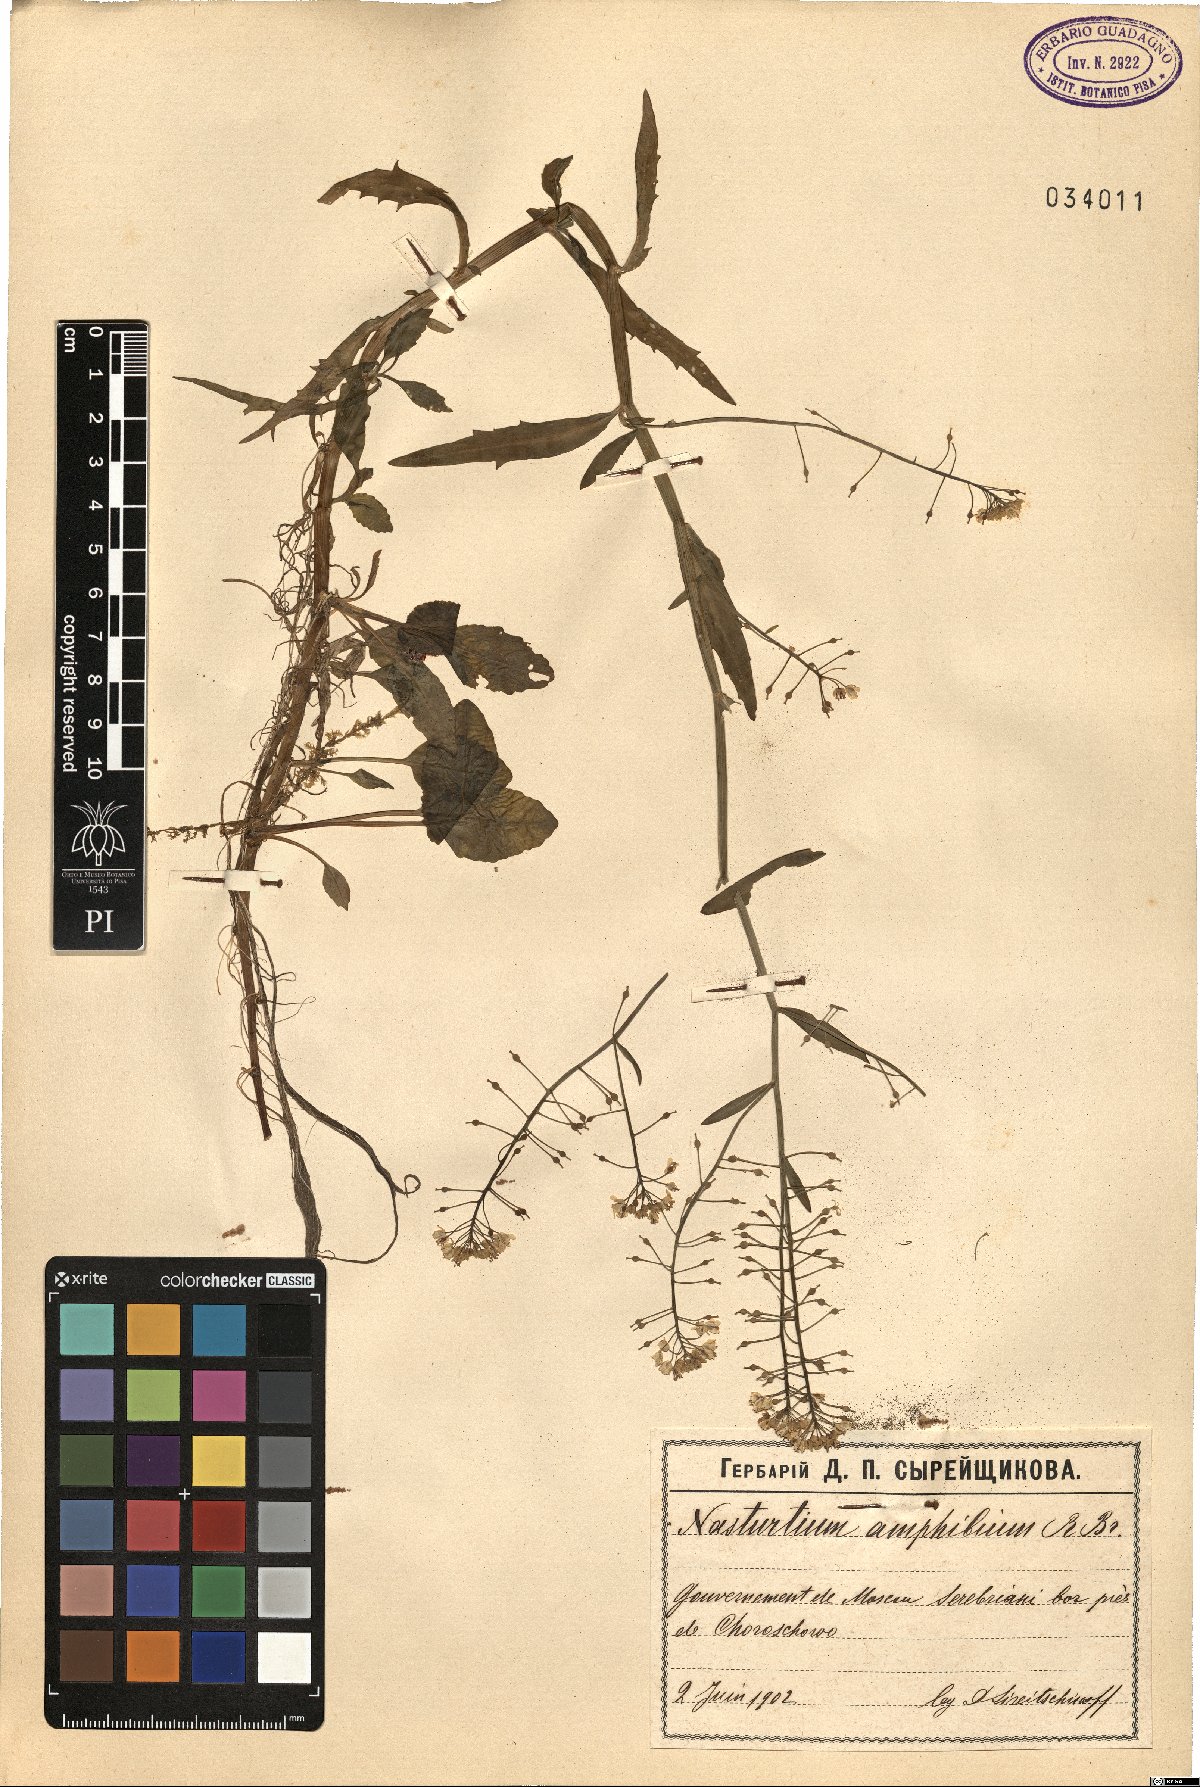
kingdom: Plantae
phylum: Tracheophyta
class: Magnoliopsida
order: Brassicales
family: Brassicaceae
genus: Rorippa
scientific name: Rorippa amphibia
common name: Great yellow-cress
